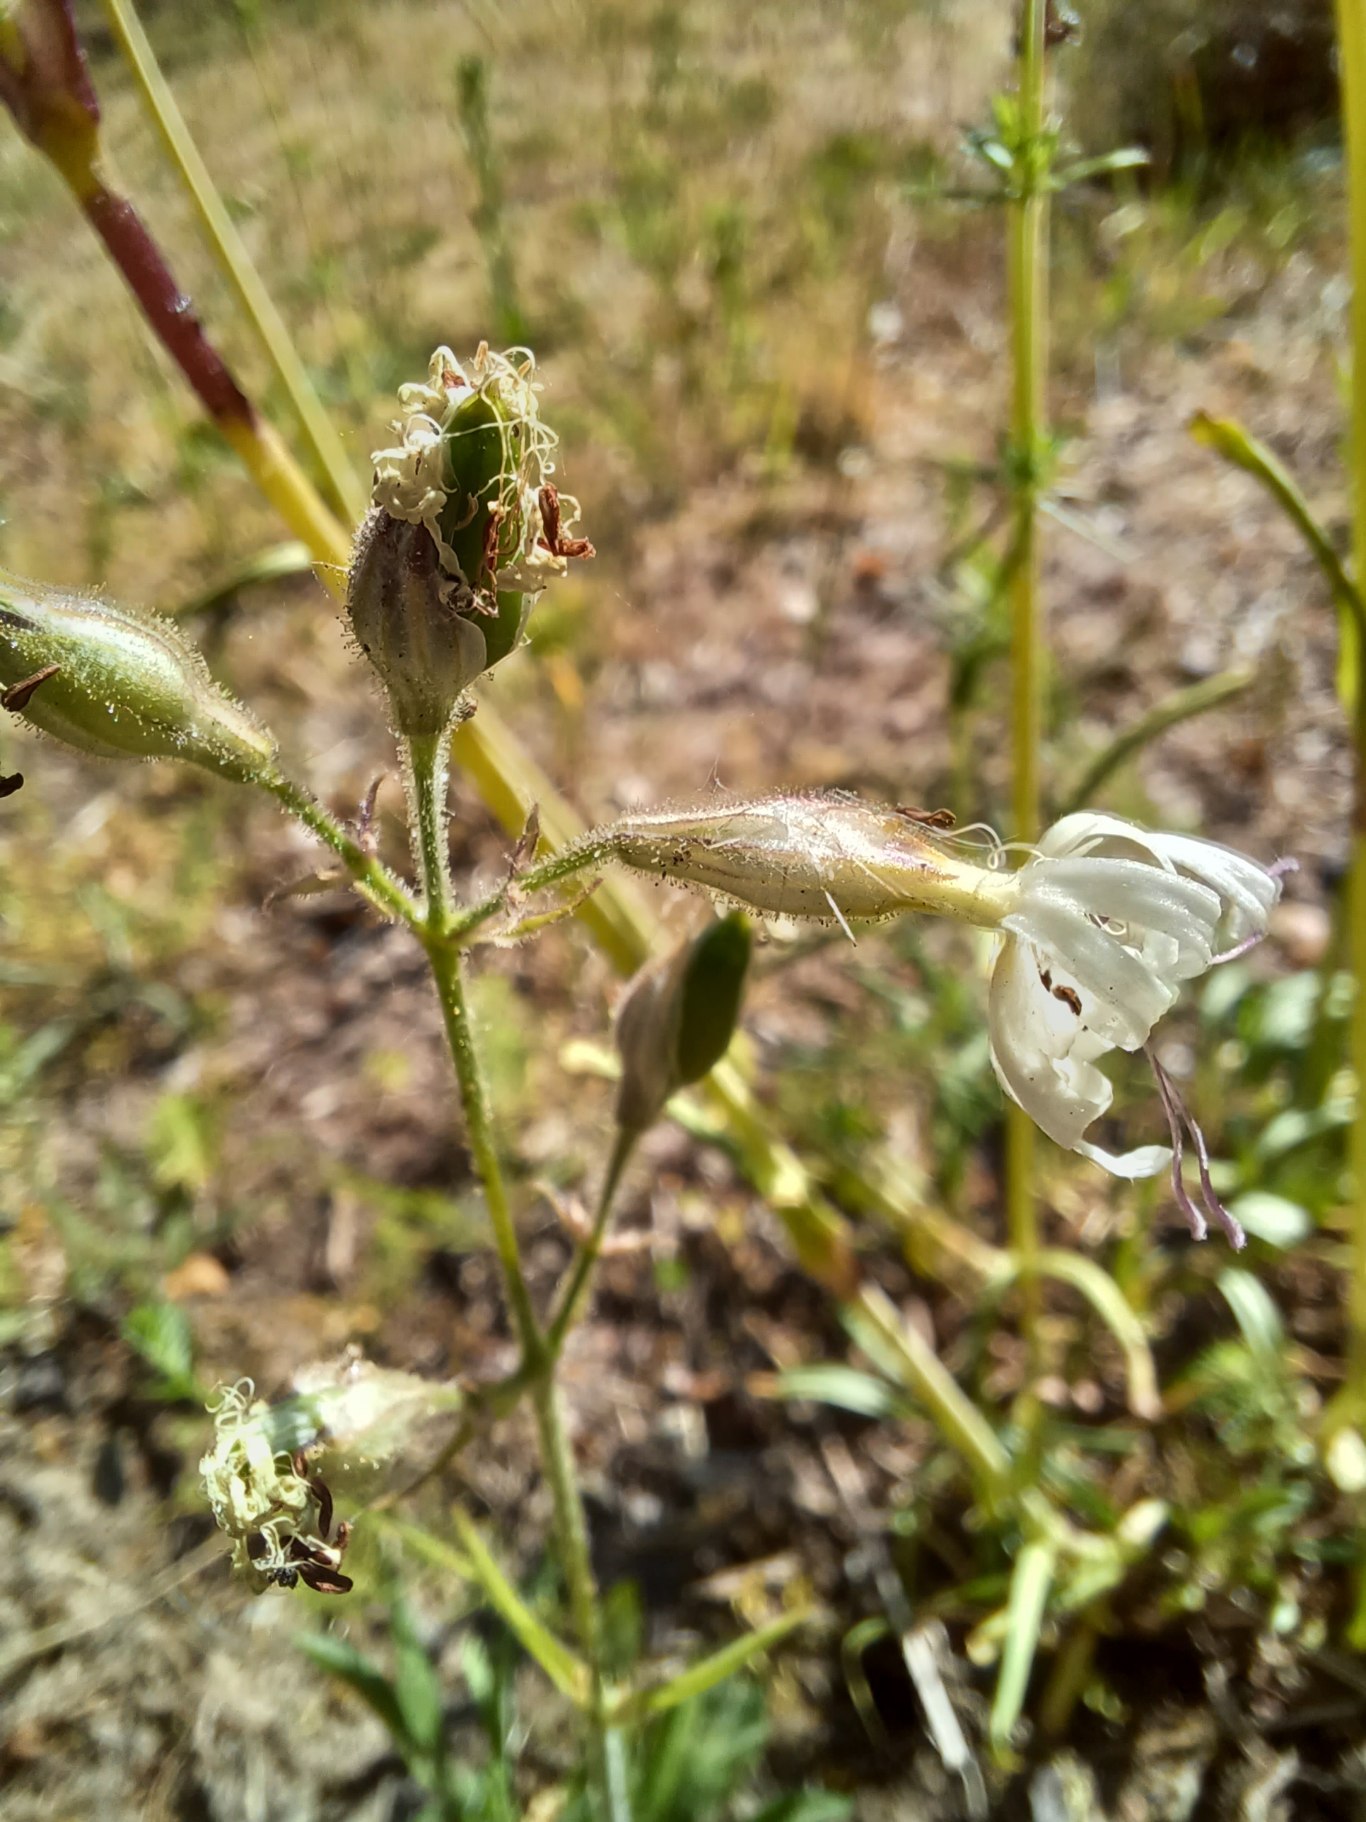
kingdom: Plantae
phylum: Tracheophyta
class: Magnoliopsida
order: Caryophyllales
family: Caryophyllaceae
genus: Silene
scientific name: Silene nutans
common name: Nikkende limurt
